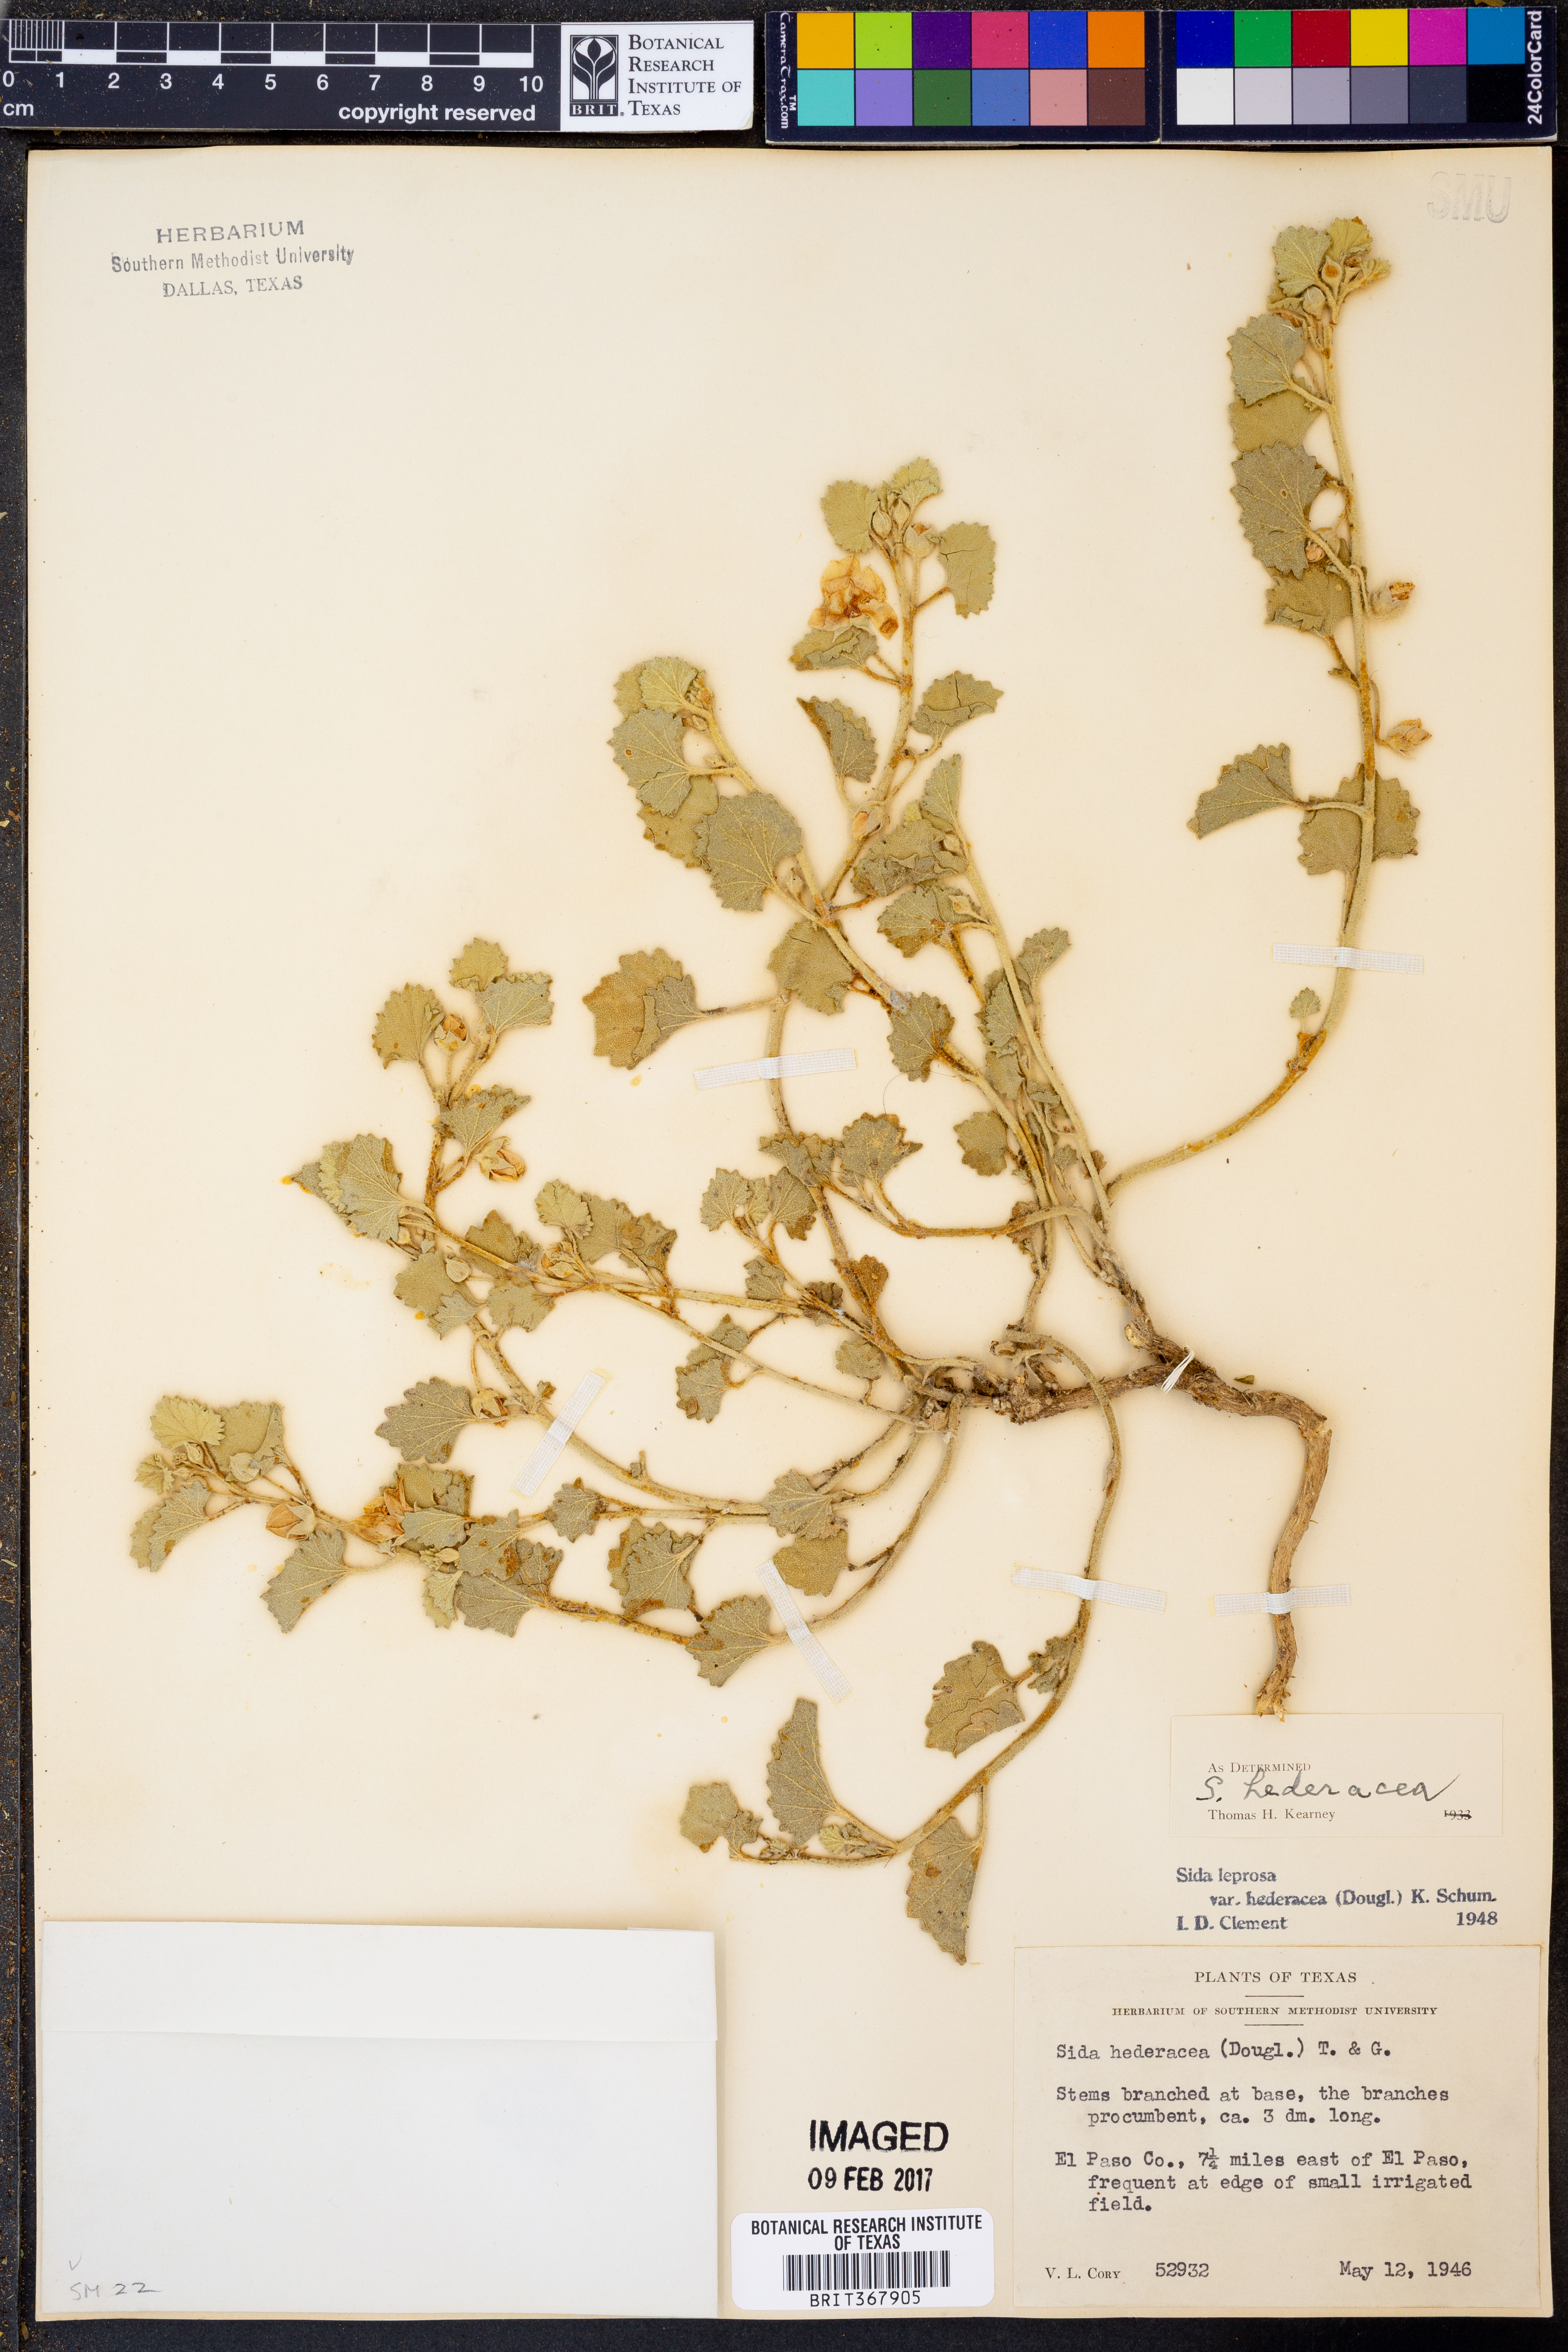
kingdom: Plantae
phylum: Tracheophyta
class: Magnoliopsida
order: Malvales
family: Malvaceae
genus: Malvella
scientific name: Malvella leprosa
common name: Alkali-mallow
